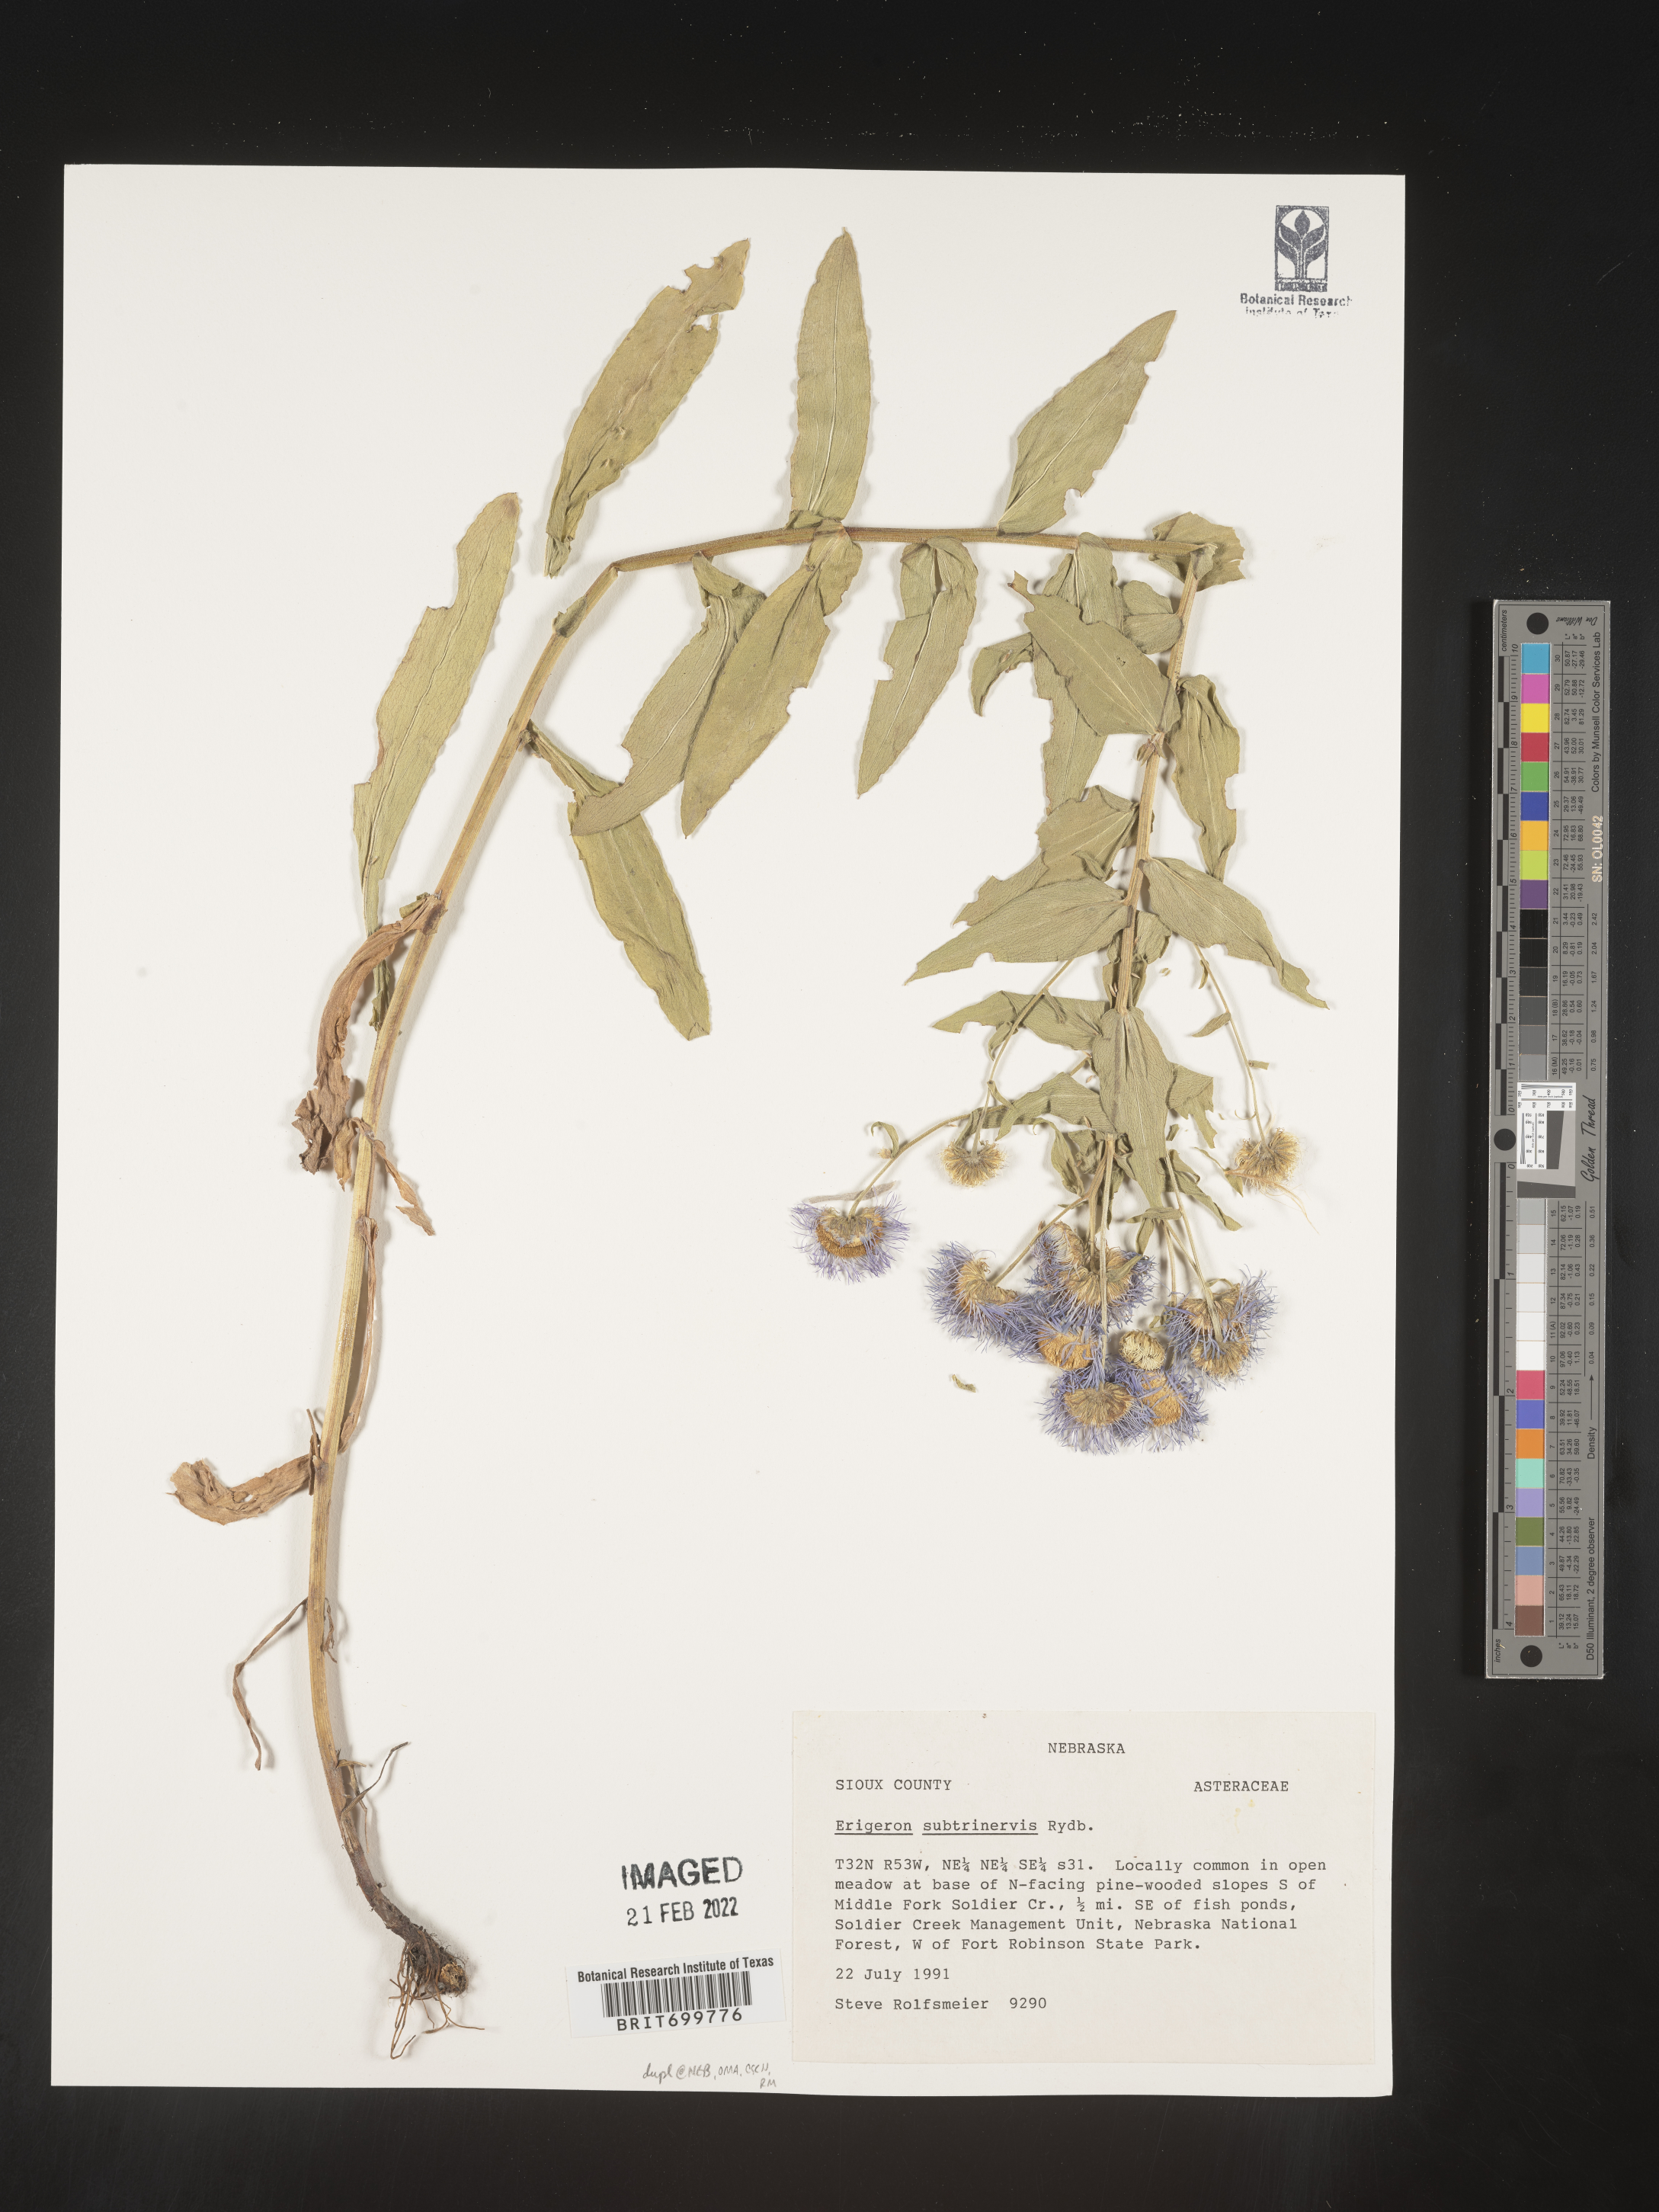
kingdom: Plantae
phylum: Tracheophyta
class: Magnoliopsida
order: Asterales
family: Asteraceae
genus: Erigeron
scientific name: Erigeron subtrinervis
